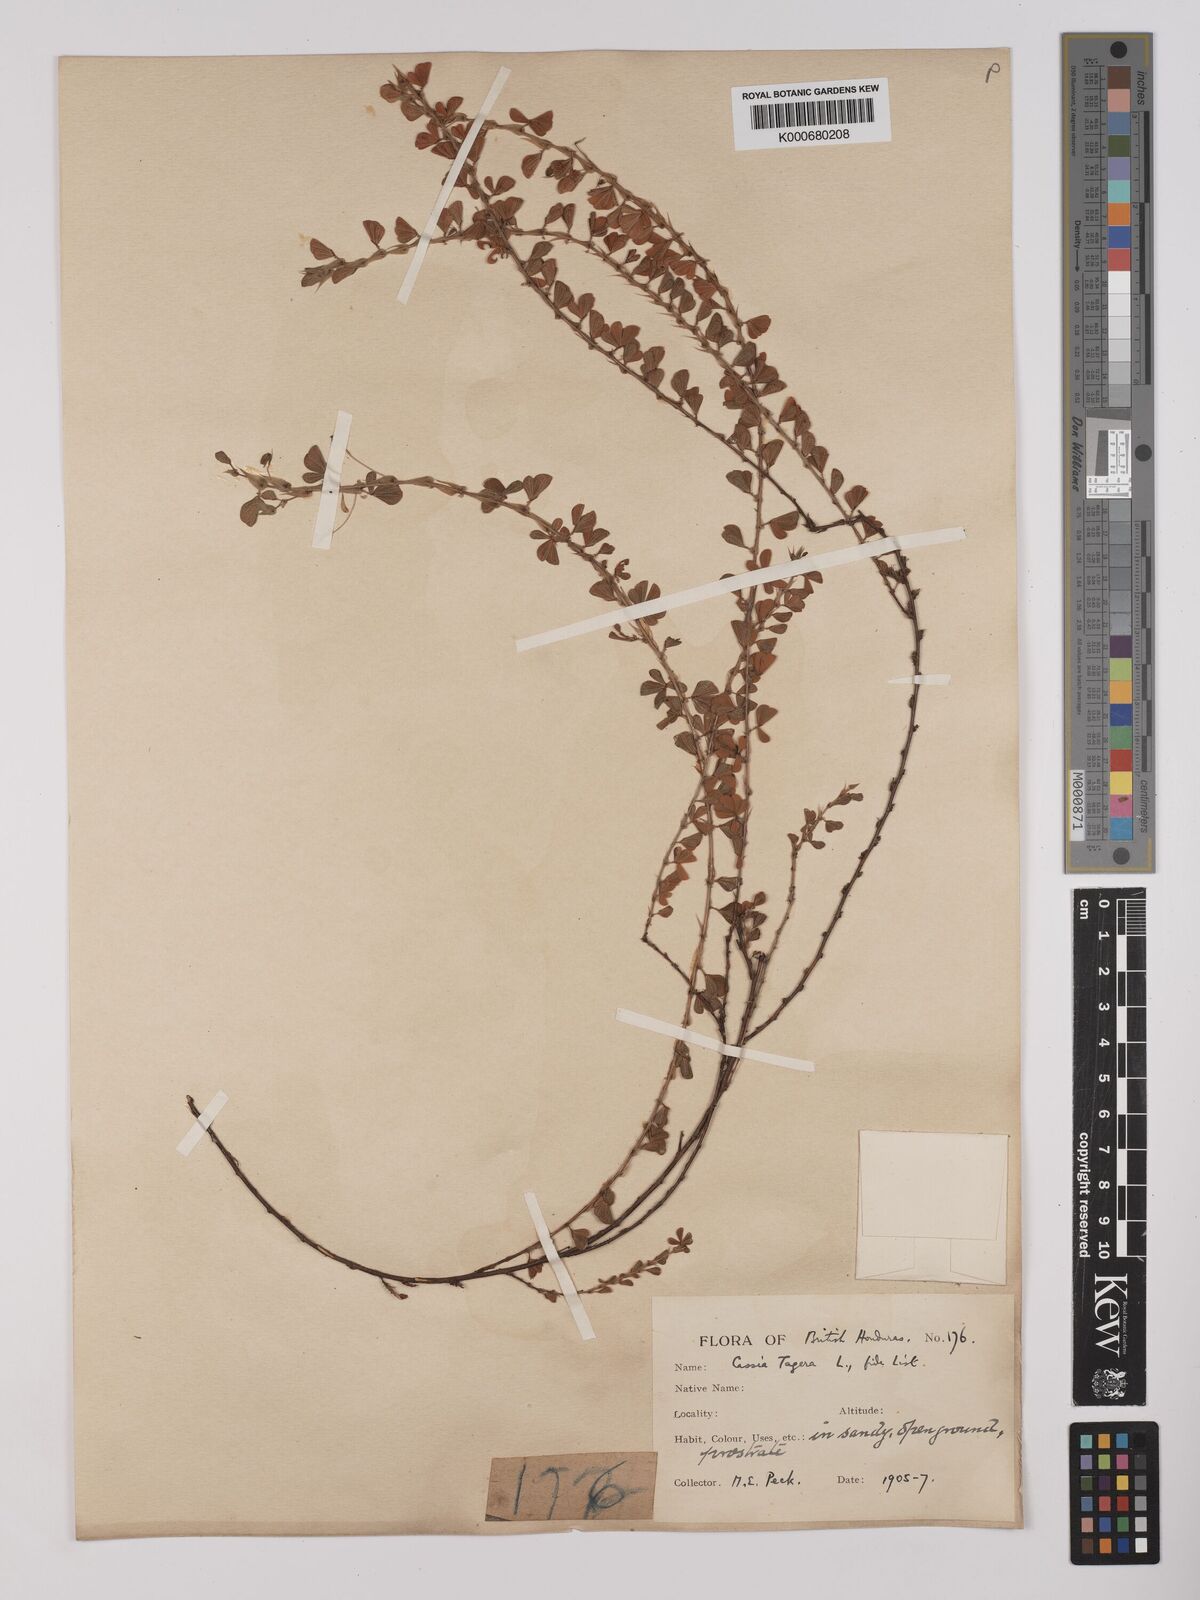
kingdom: Plantae
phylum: Tracheophyta
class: Magnoliopsida
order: Fabales
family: Fabaceae
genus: Chamaecrista
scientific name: Chamaecrista kunthiana
